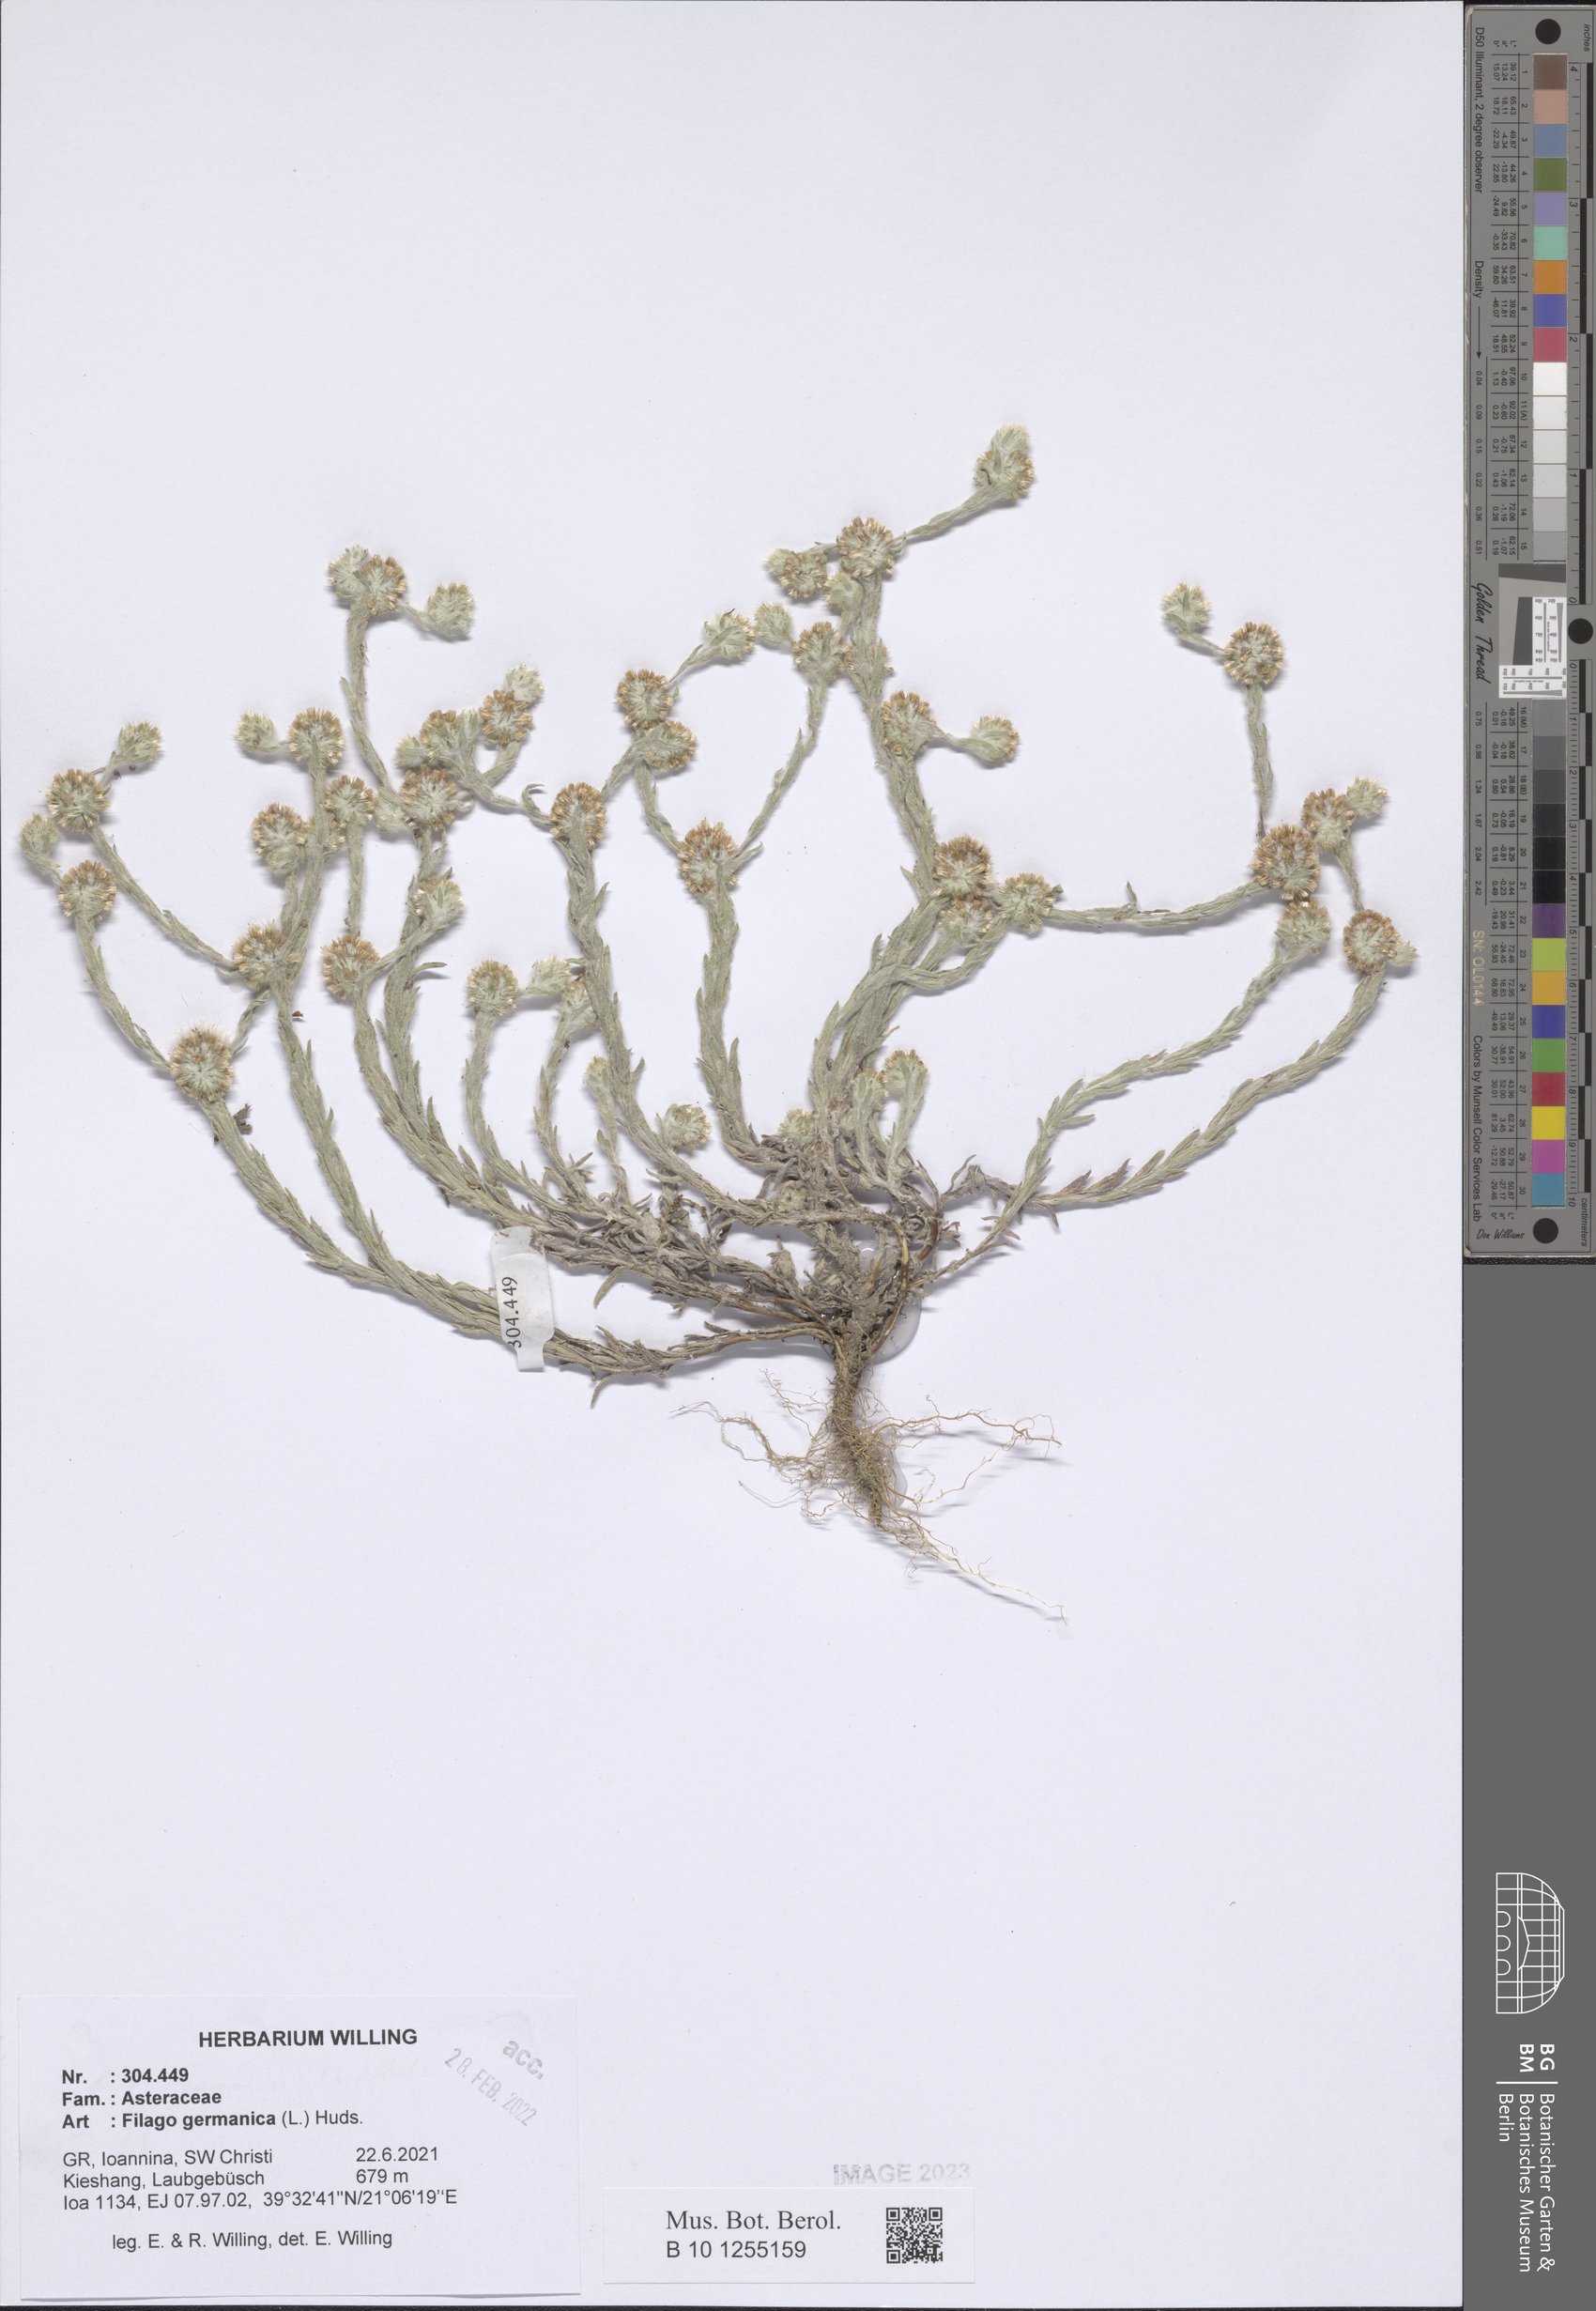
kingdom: Plantae
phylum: Tracheophyta
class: Magnoliopsida
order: Asterales
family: Asteraceae
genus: Filago
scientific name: Filago germanica
